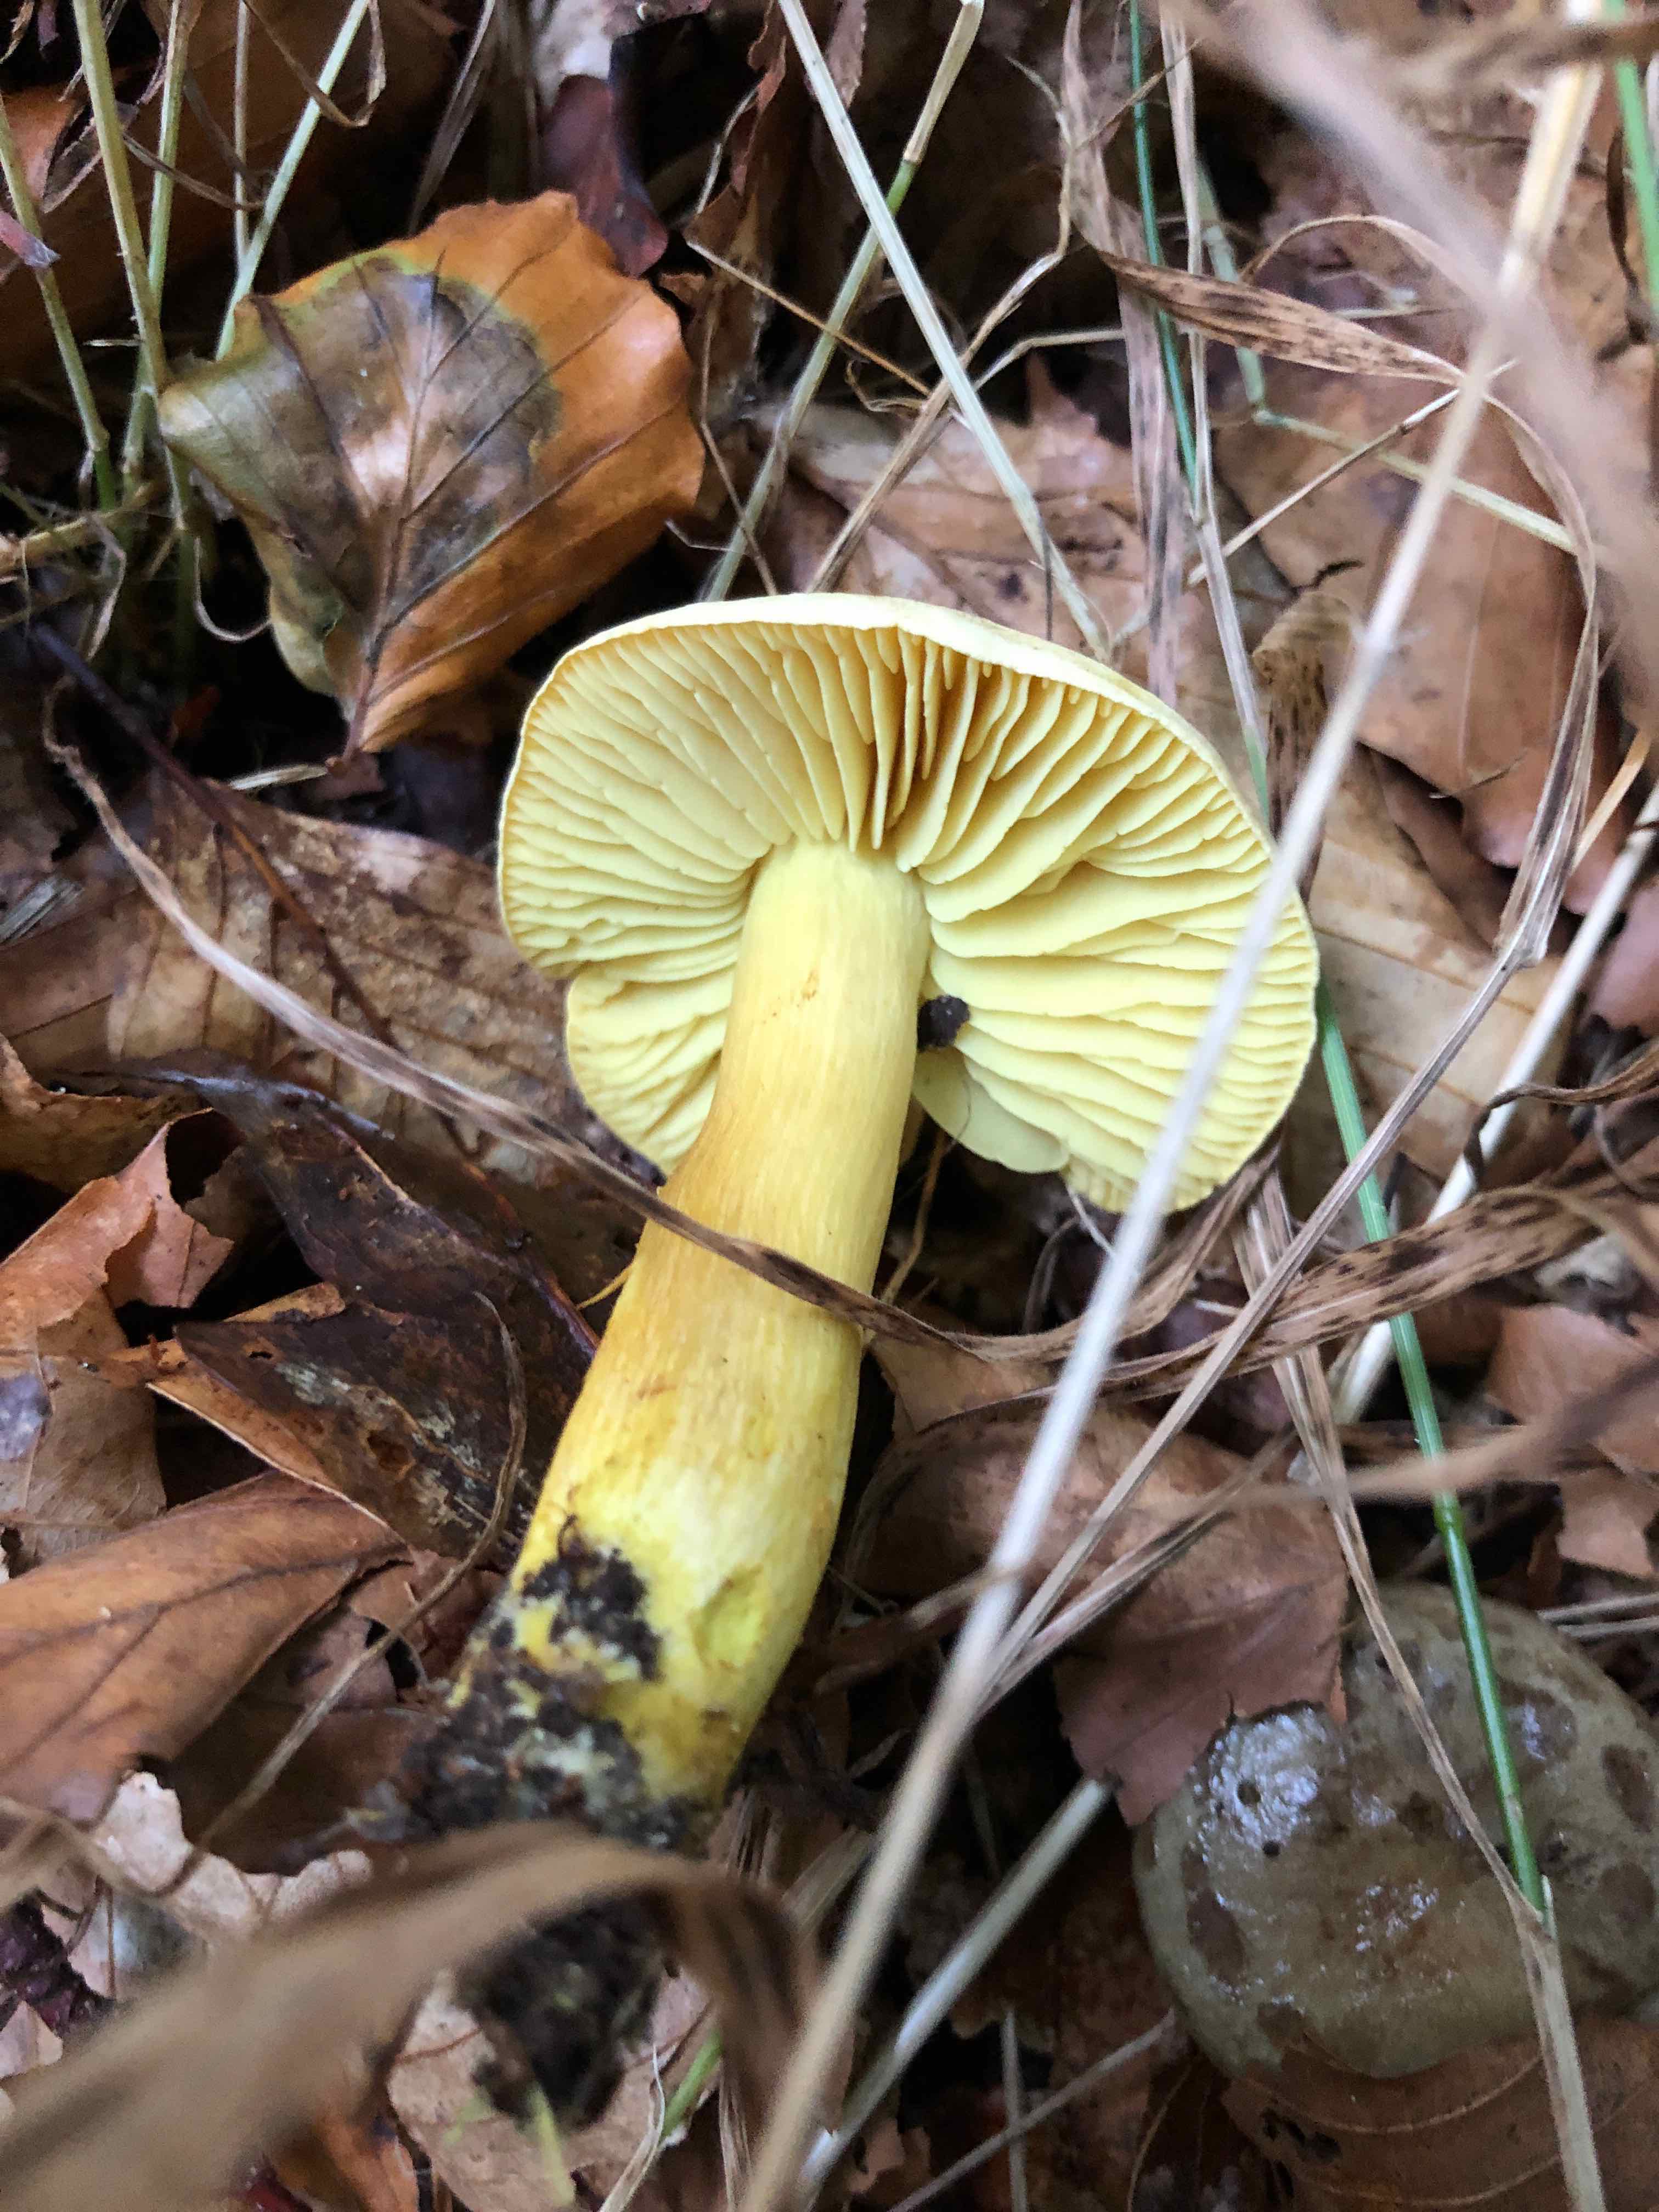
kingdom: Fungi
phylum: Basidiomycota
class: Agaricomycetes
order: Agaricales
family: Tricholomataceae
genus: Tricholoma
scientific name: Tricholoma sulphureum
